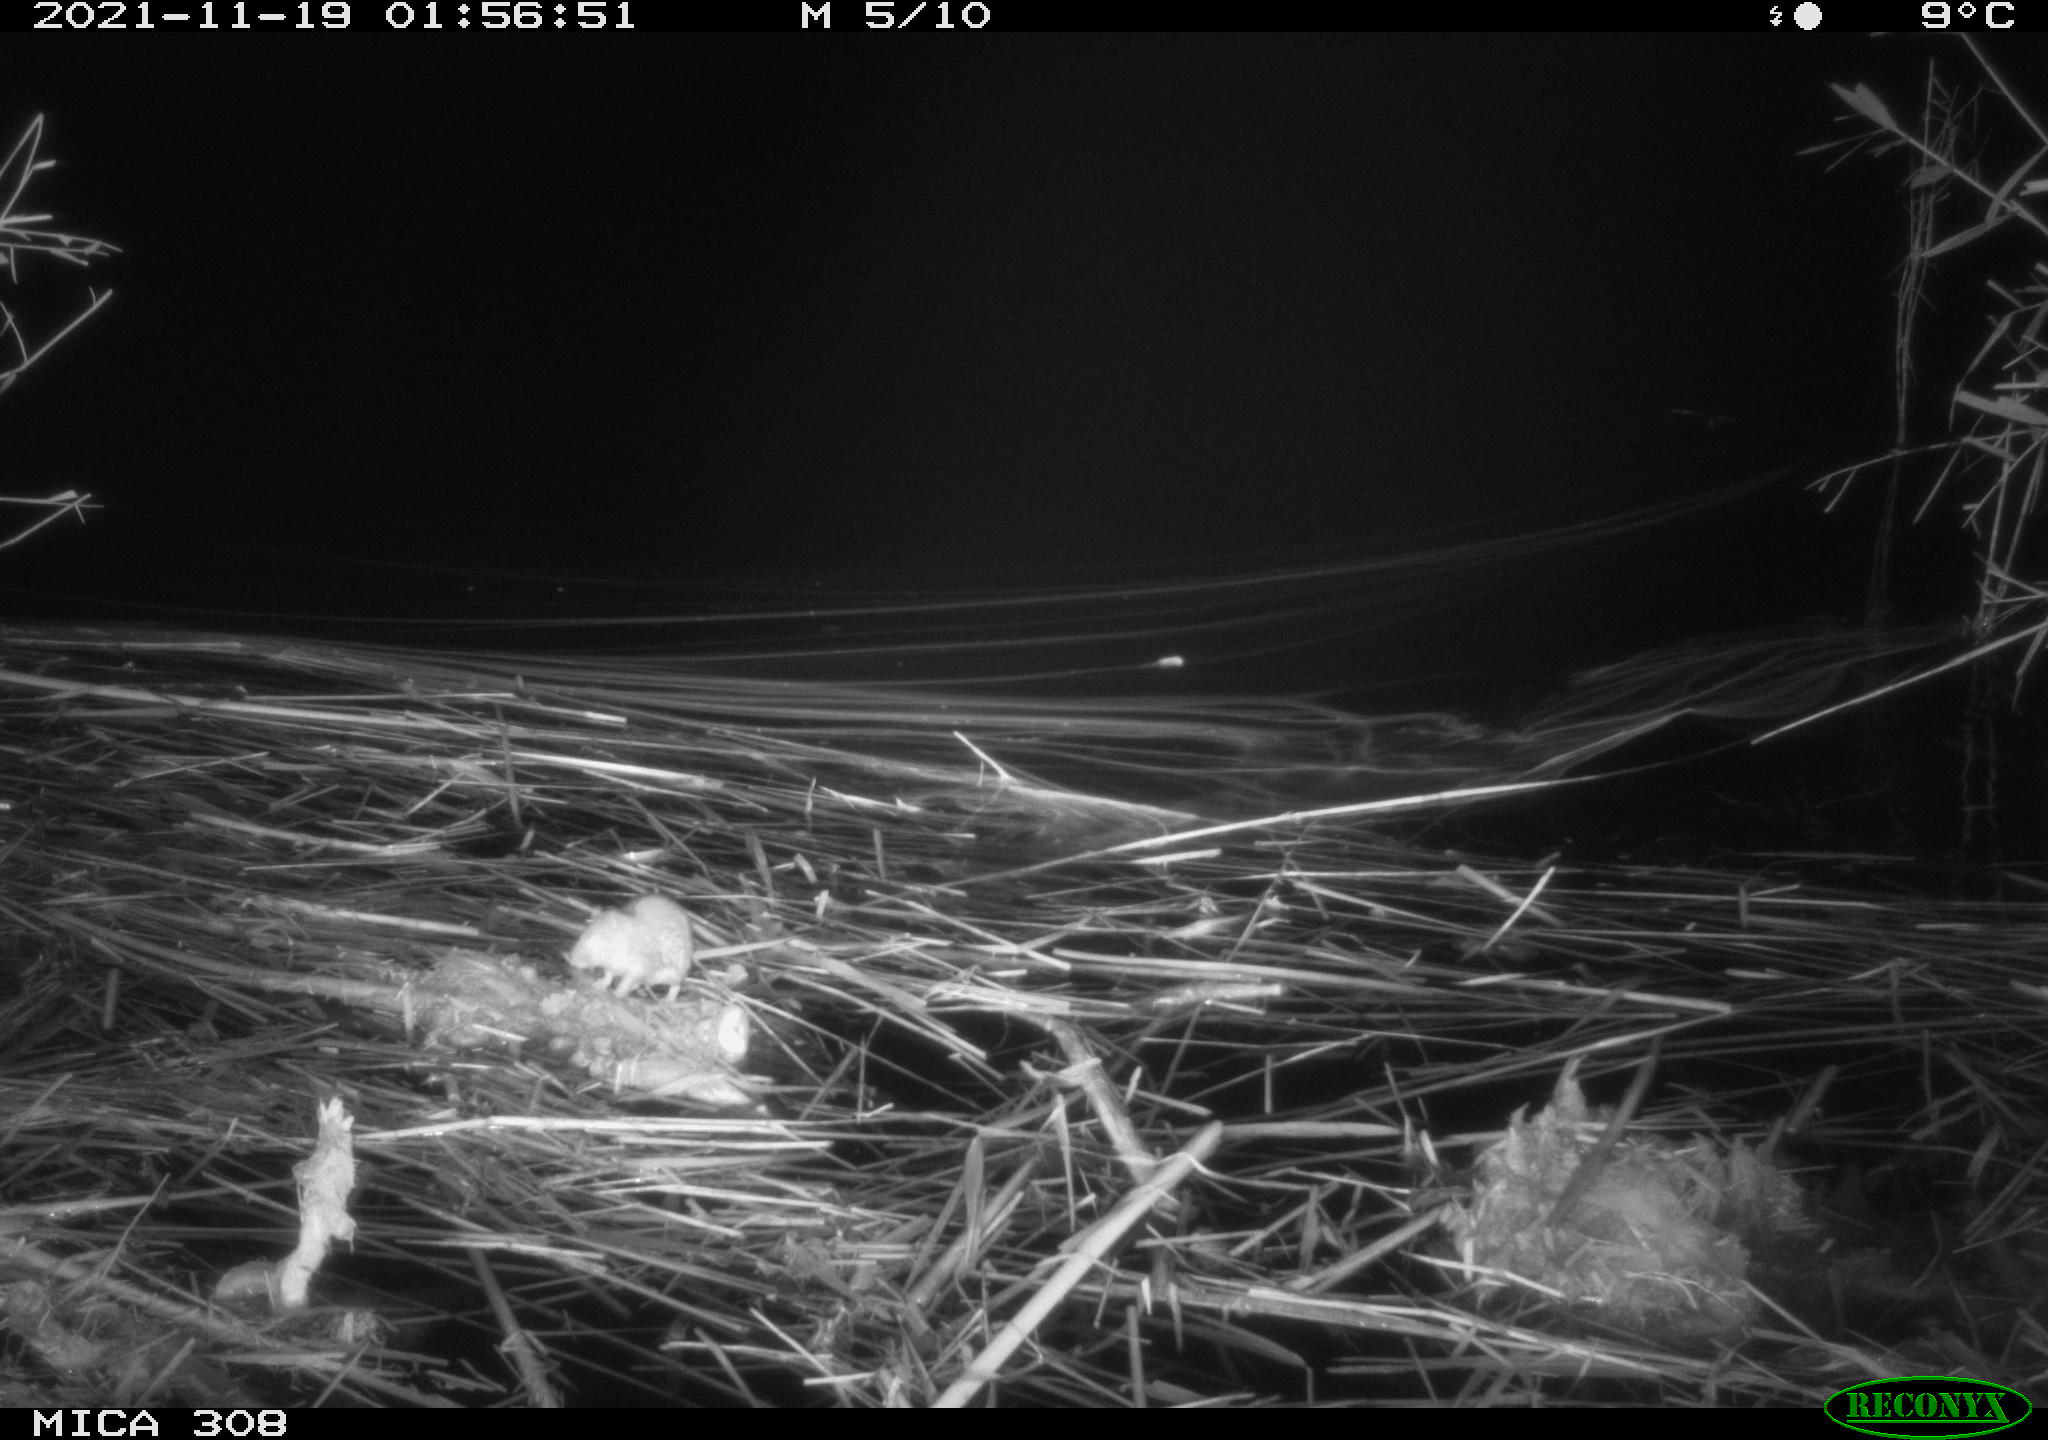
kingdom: Animalia
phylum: Chordata
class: Mammalia
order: Rodentia
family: Muridae
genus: Rattus
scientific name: Rattus norvegicus
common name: Brown rat
